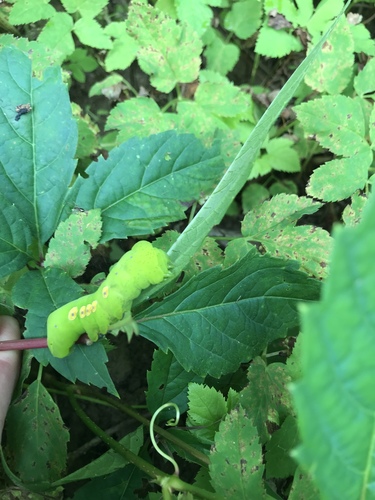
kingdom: Animalia
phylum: Arthropoda
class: Insecta
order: Lepidoptera
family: Sphingidae
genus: Eumorpha
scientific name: Eumorpha pandorus
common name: Pandora sphinx
